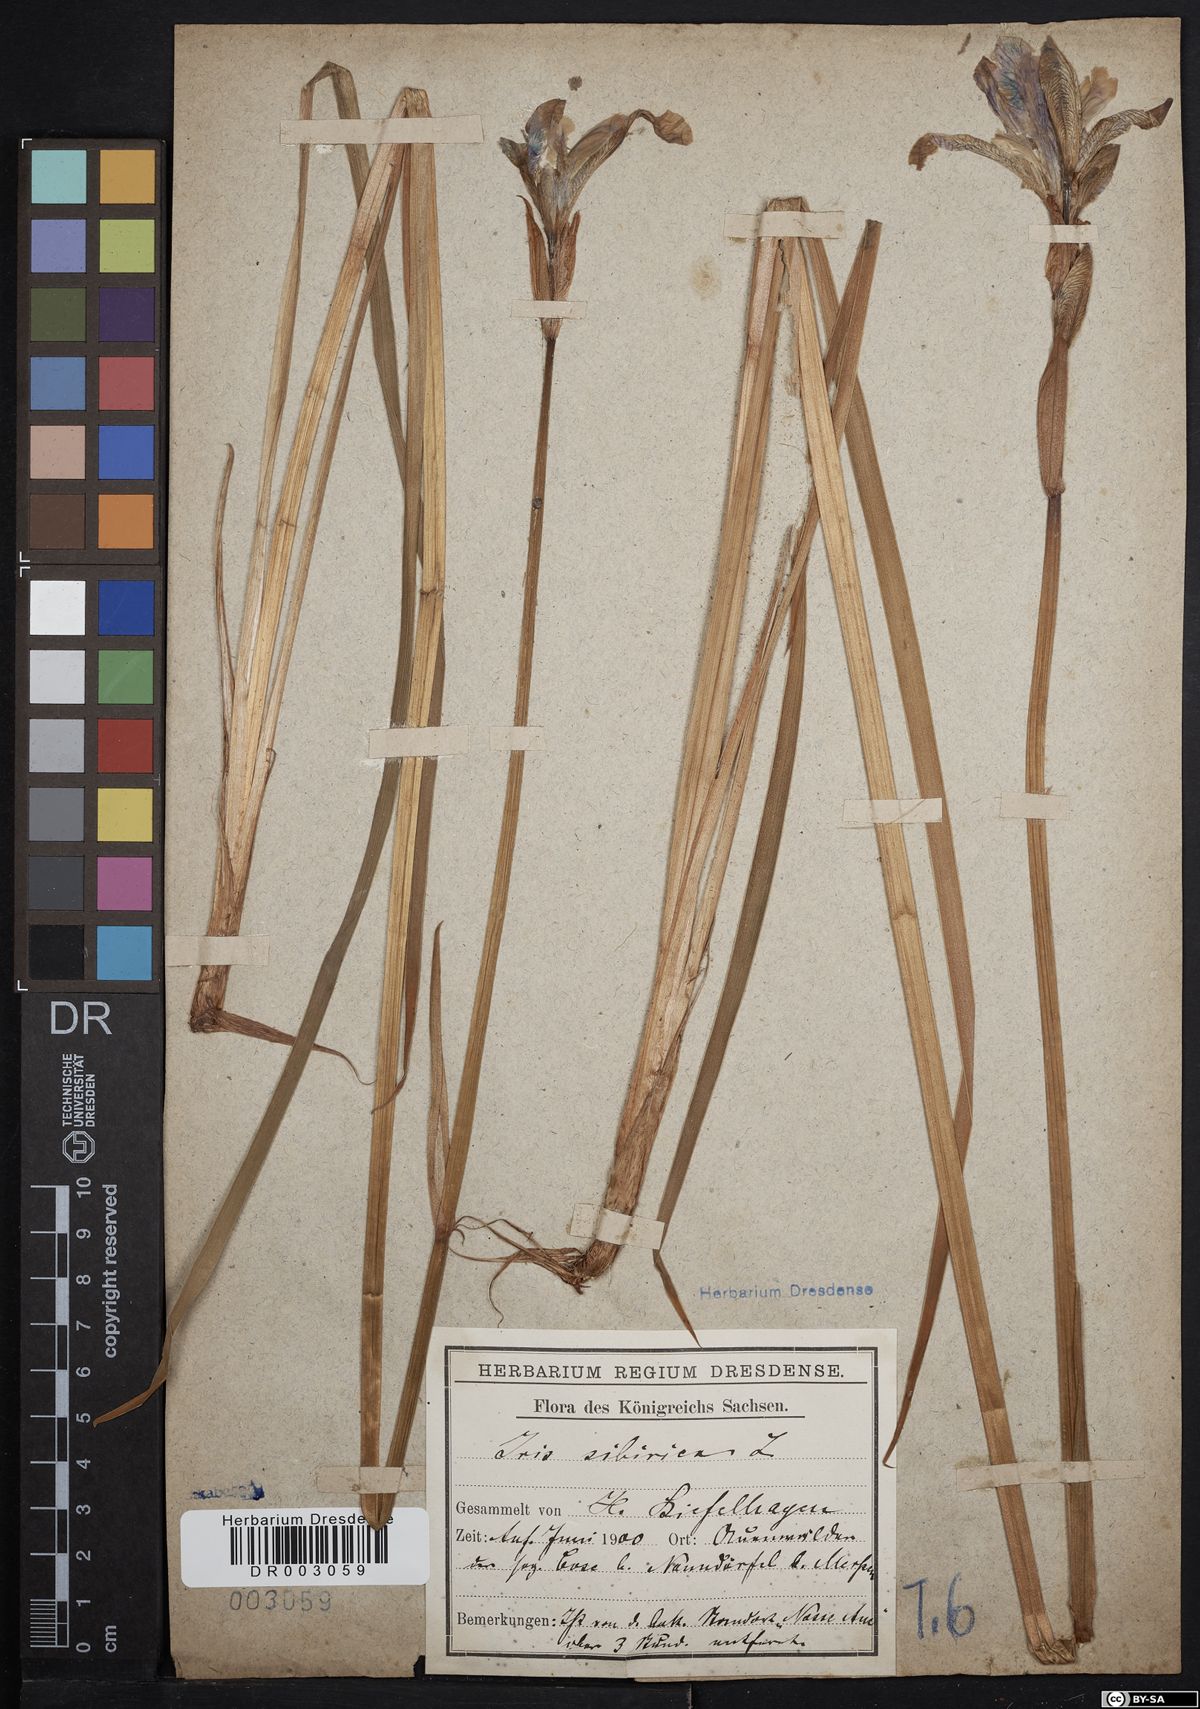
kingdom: Plantae
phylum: Tracheophyta
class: Liliopsida
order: Asparagales
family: Iridaceae
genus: Iris
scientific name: Iris sibirica
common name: Siberian iris
